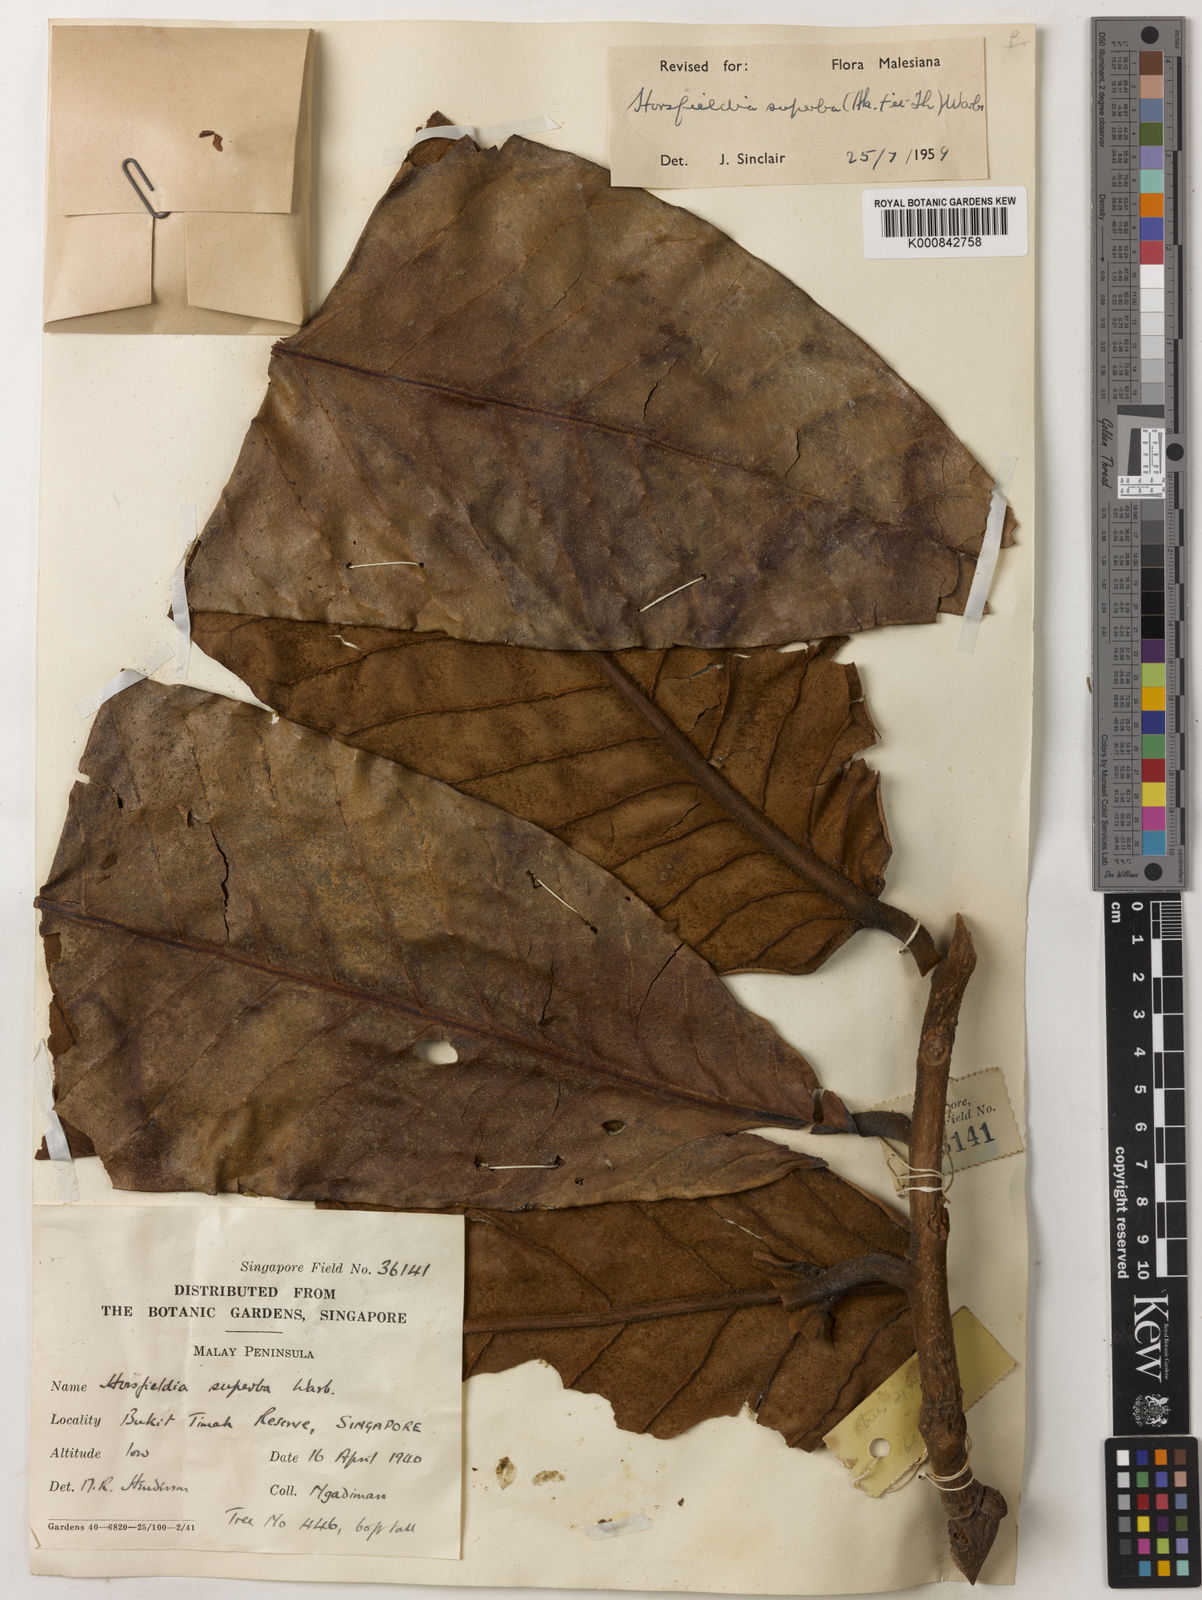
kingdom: Plantae
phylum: Tracheophyta
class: Magnoliopsida
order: Magnoliales
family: Myristicaceae
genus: Horsfieldia
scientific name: Horsfieldia superba
